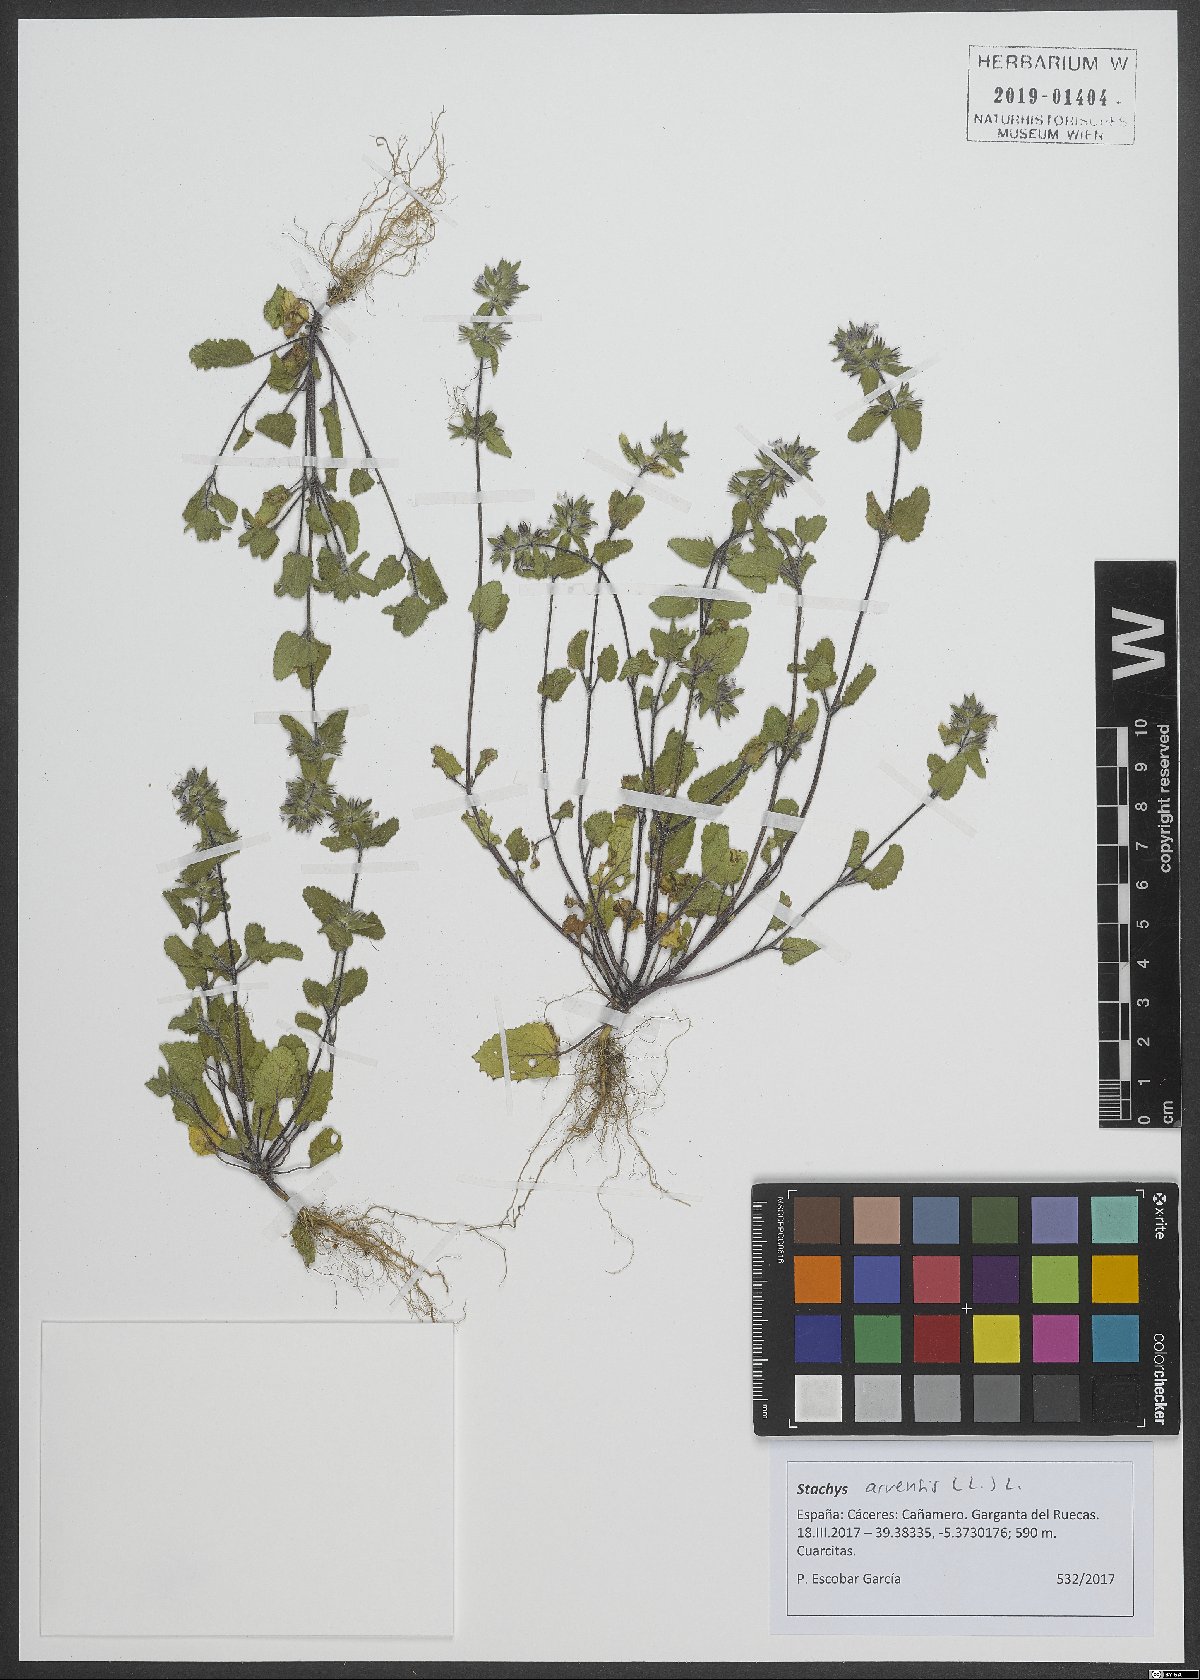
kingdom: Plantae
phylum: Tracheophyta
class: Magnoliopsida
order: Lamiales
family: Lamiaceae
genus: Stachys
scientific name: Stachys arvensis
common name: Field woundwort
